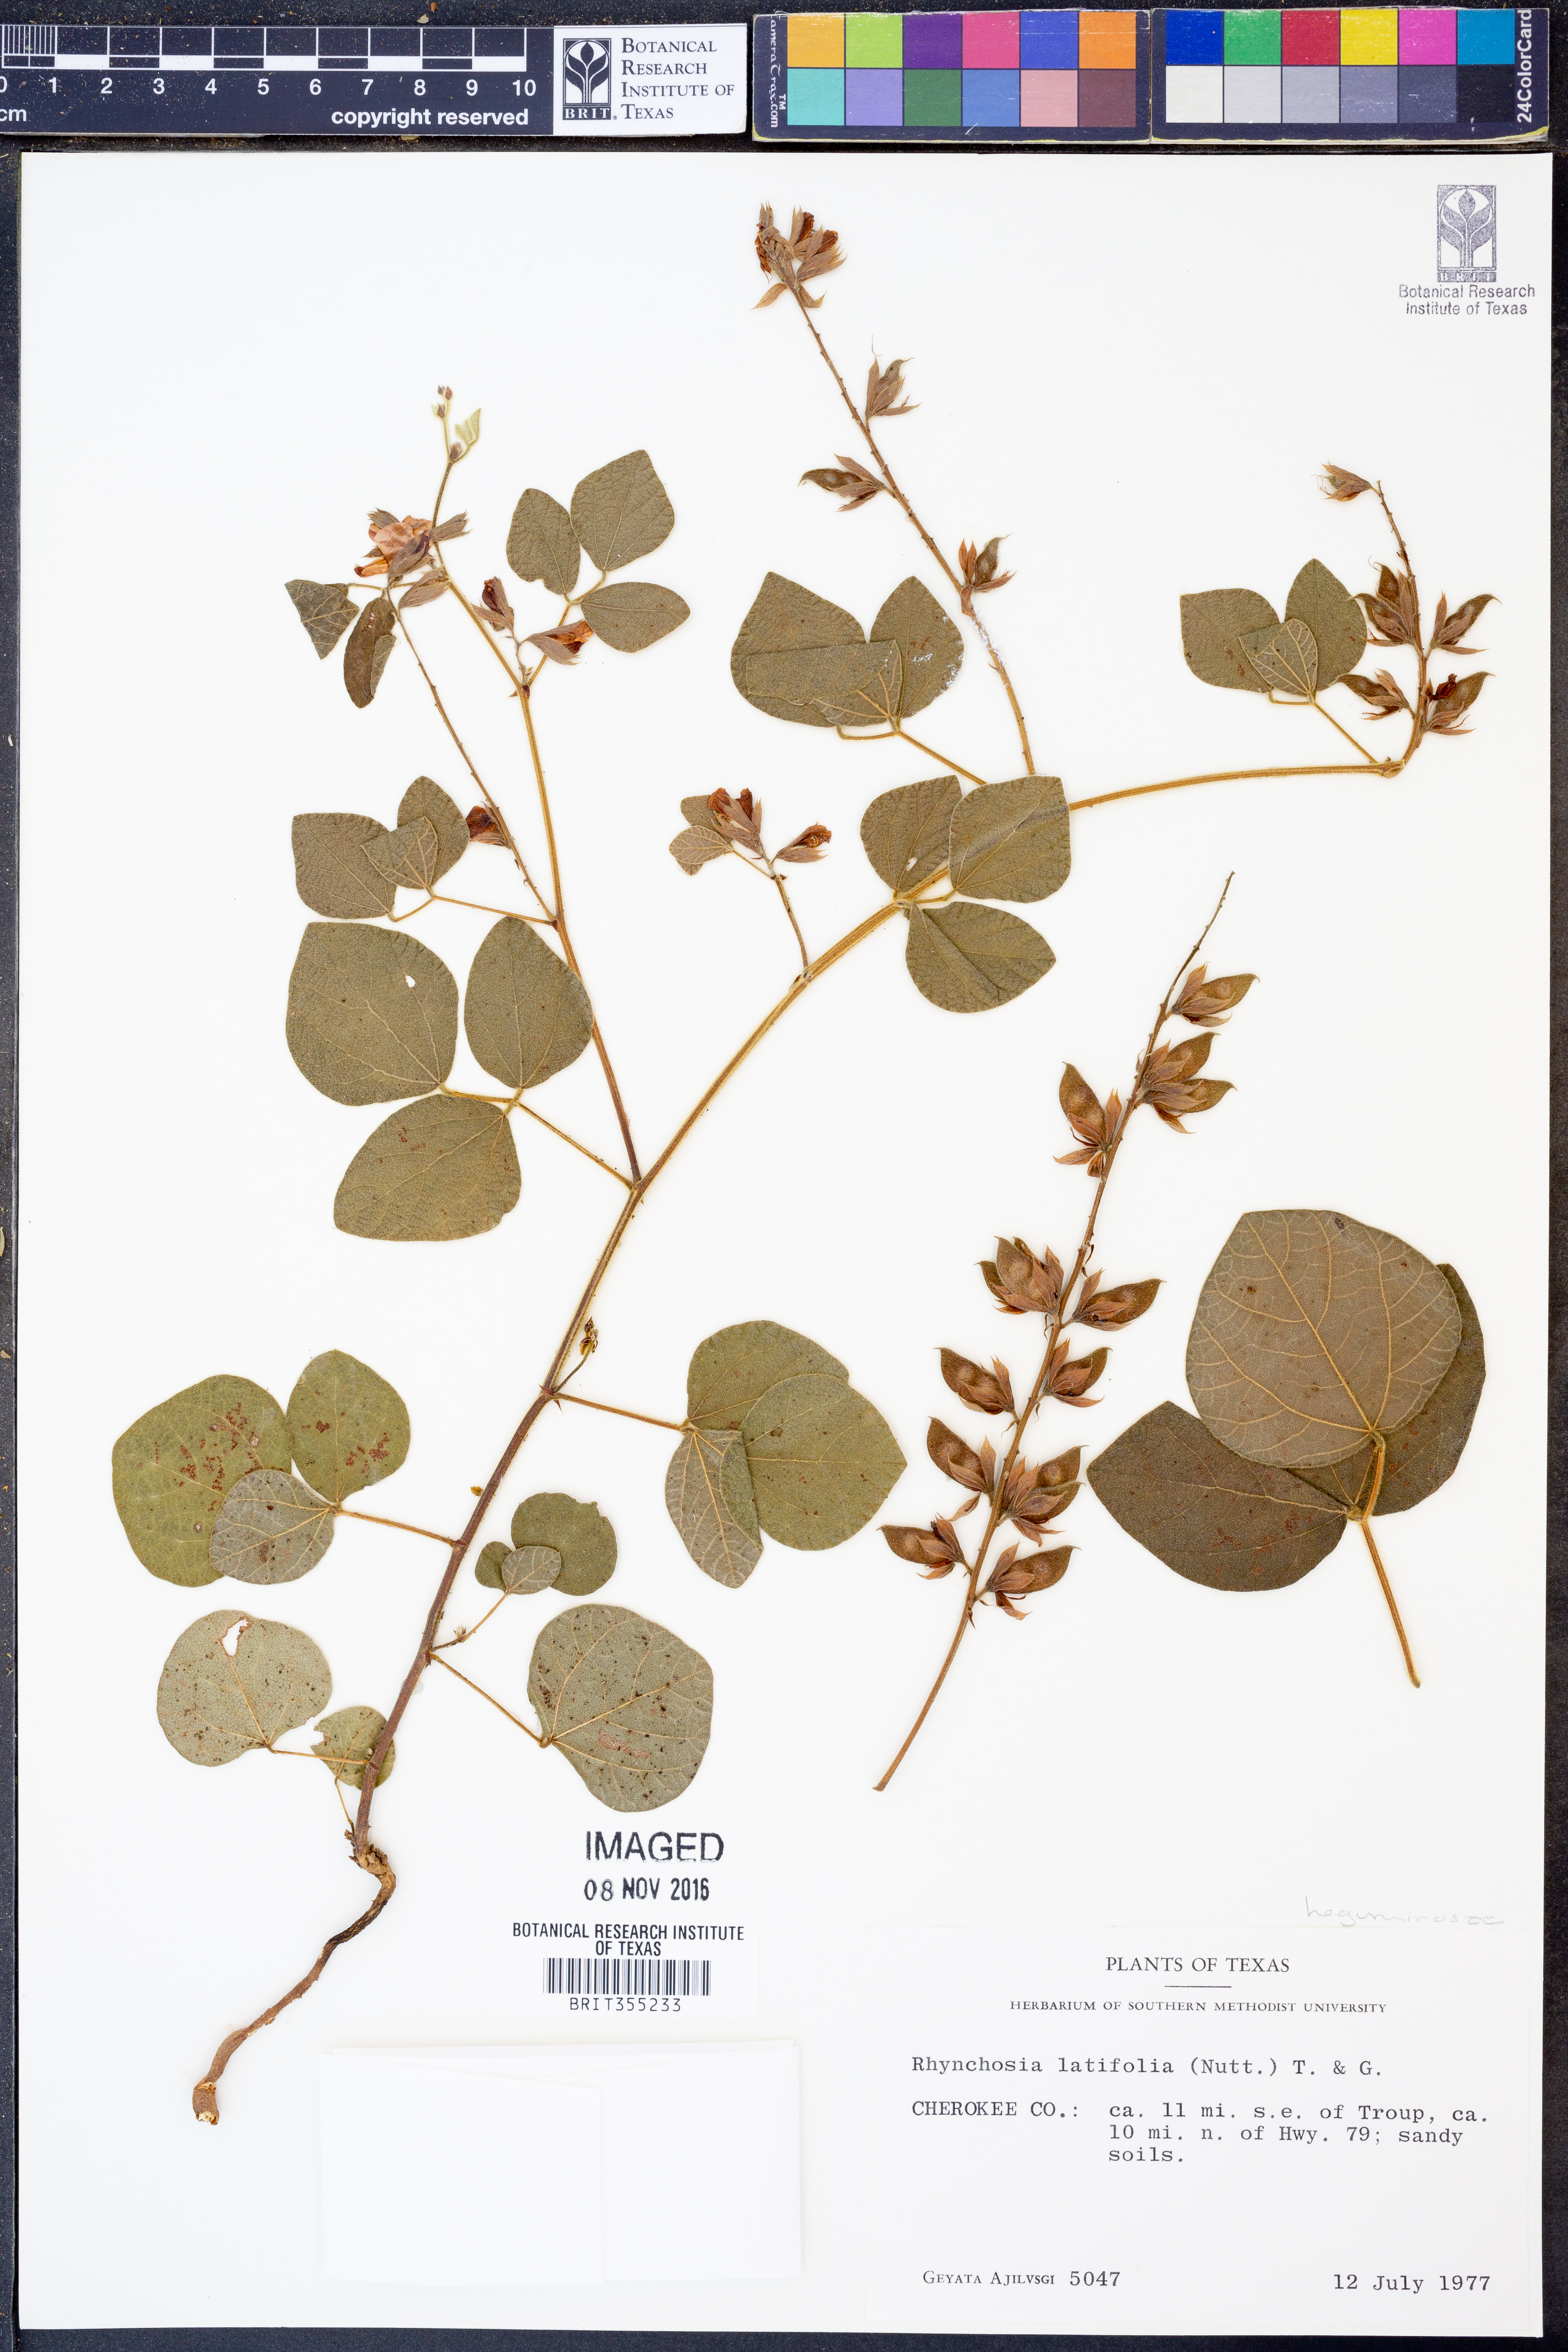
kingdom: Plantae
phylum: Tracheophyta
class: Magnoliopsida
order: Fabales
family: Fabaceae
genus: Rhynchosia
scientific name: Rhynchosia latifolia
